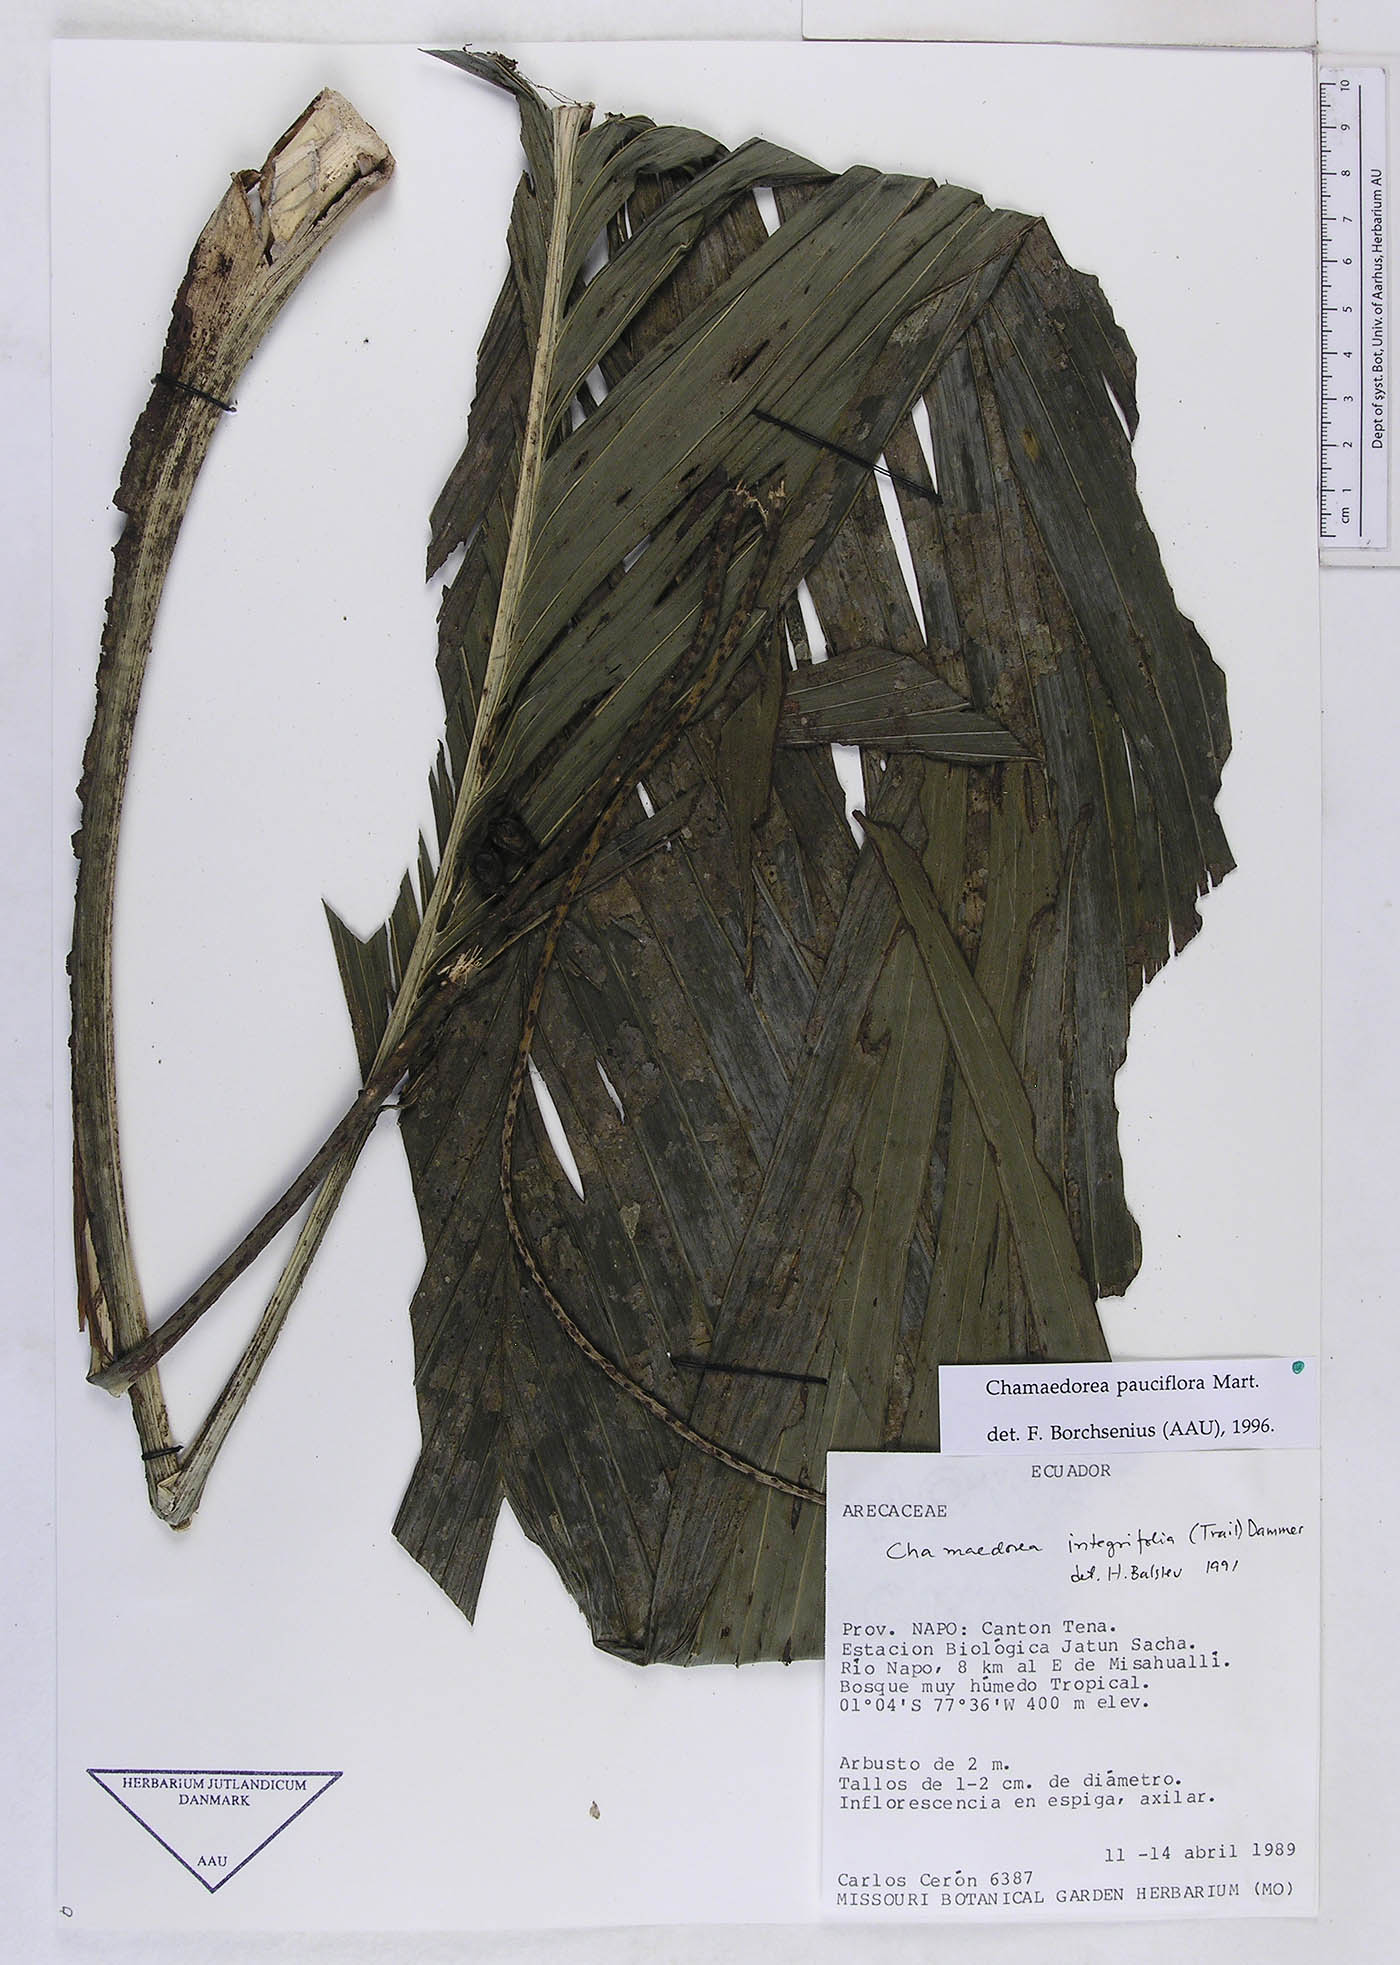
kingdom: Plantae
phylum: Tracheophyta
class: Liliopsida
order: Arecales
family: Arecaceae
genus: Chamaedorea
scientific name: Chamaedorea pauciflora
